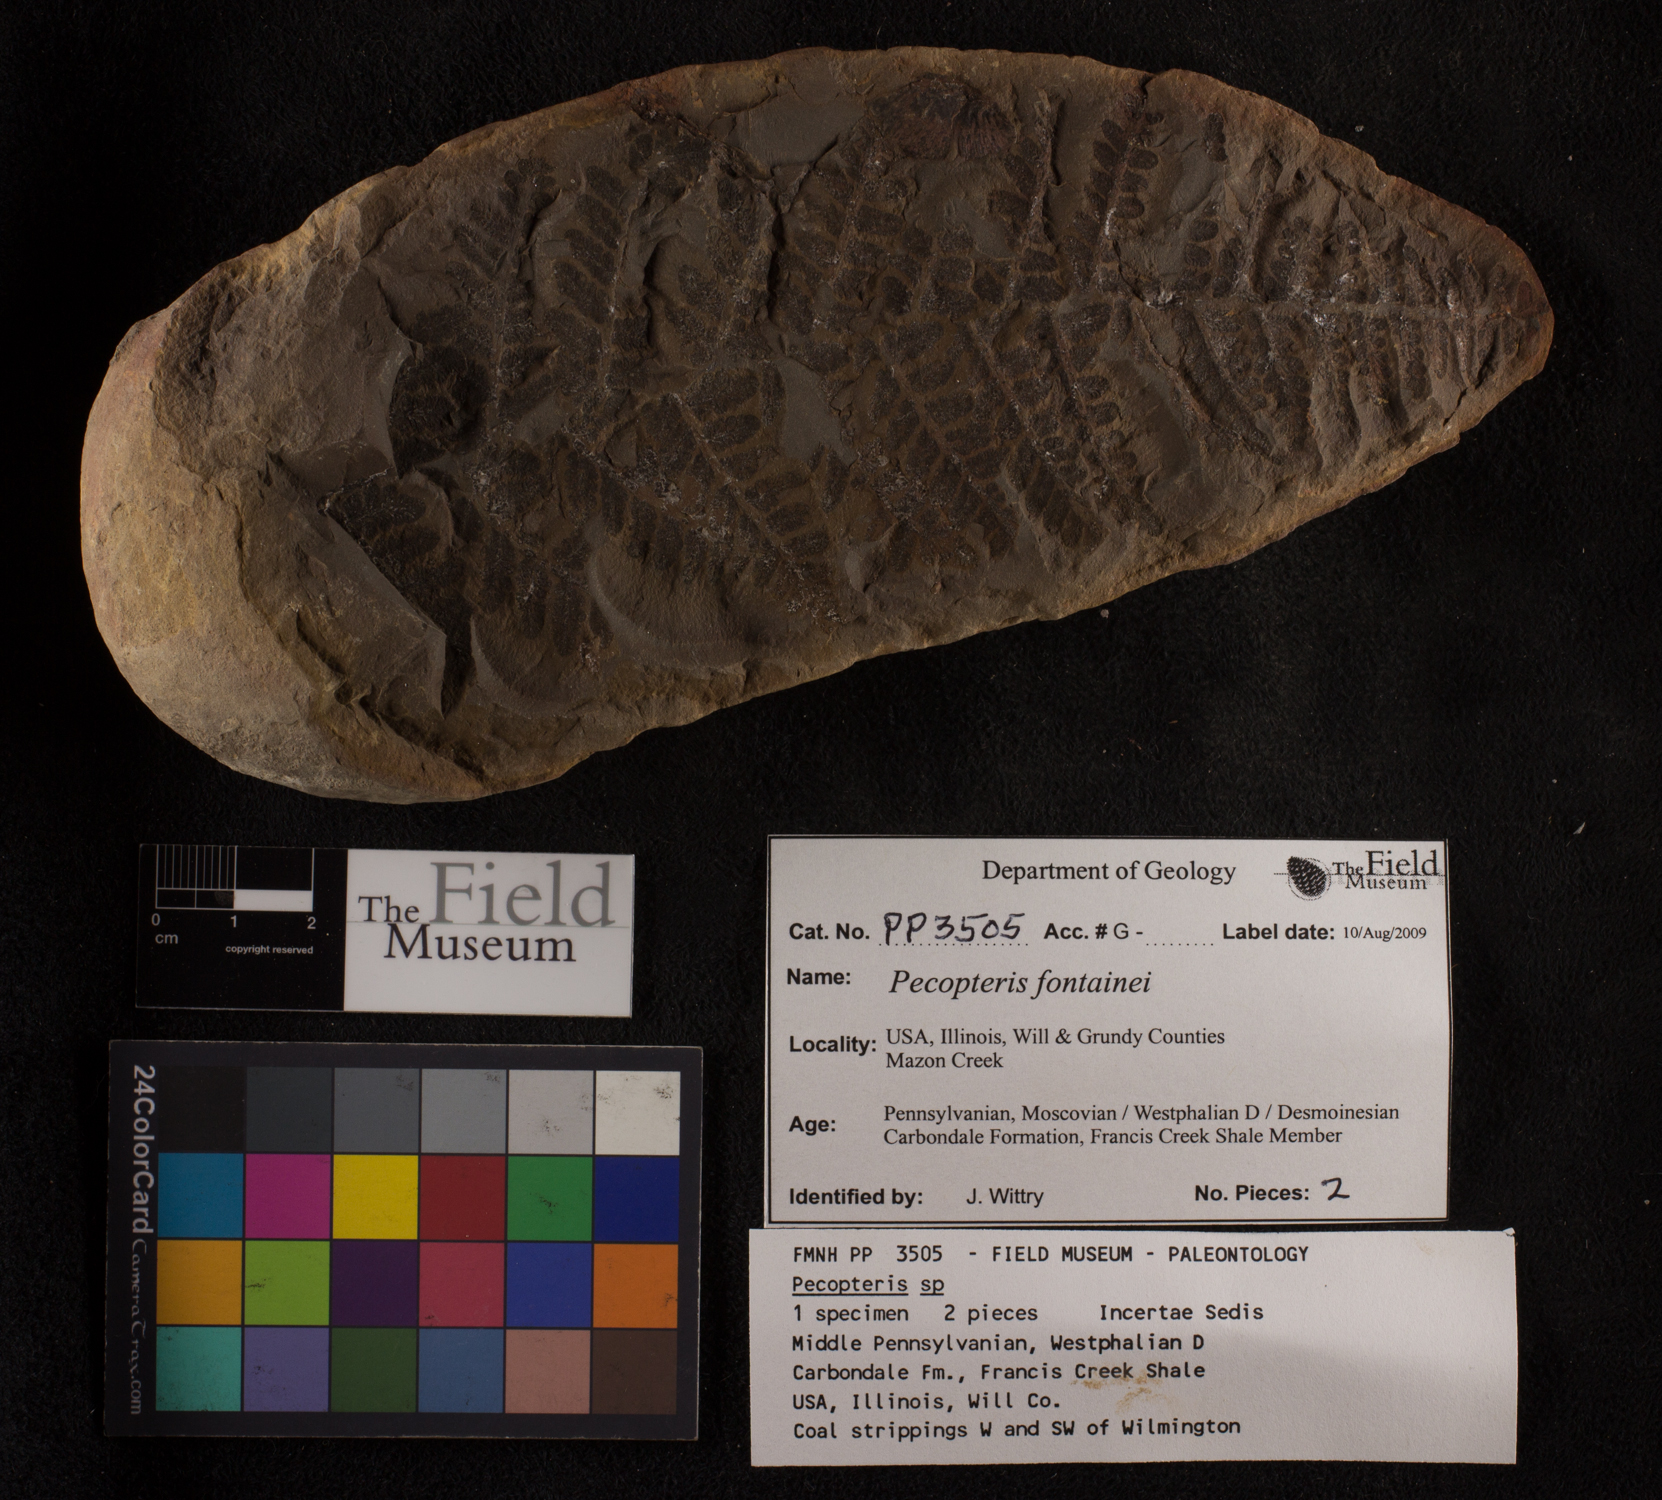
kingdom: Plantae
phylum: Tracheophyta
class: Polypodiopsida
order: Marattiales
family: Asterothecaceae
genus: Pecopteris
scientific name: Pecopteris
